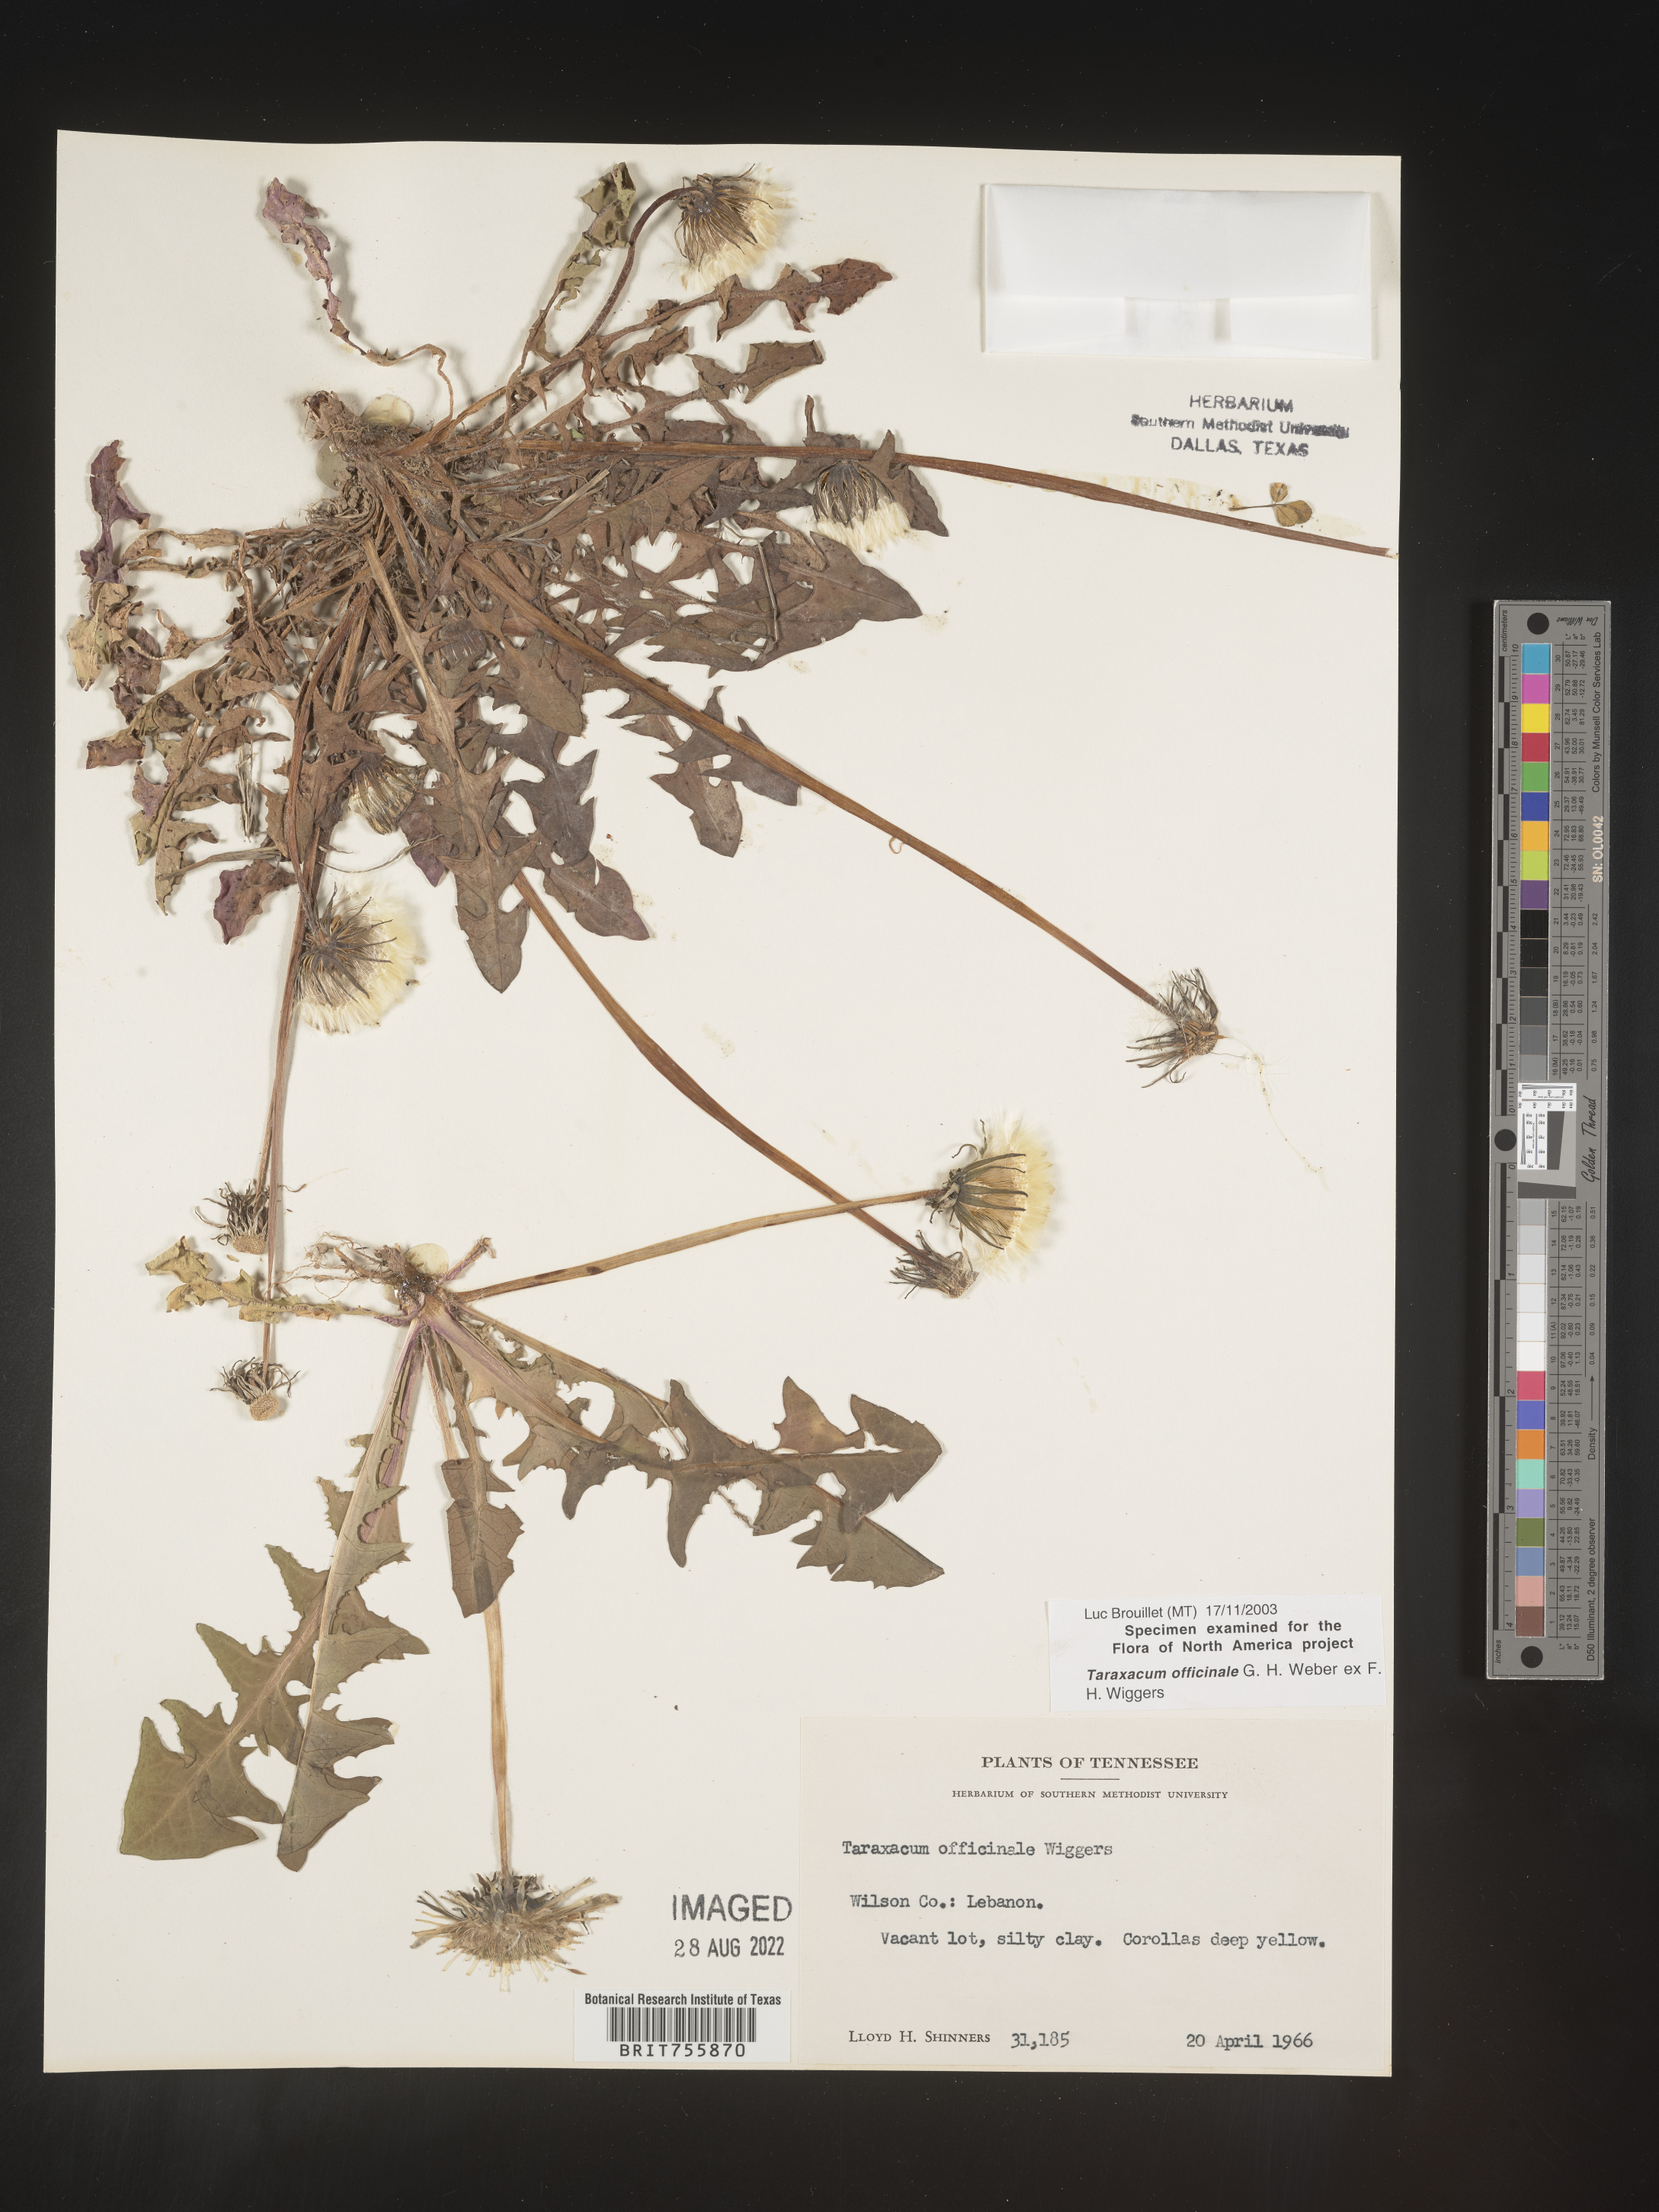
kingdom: Plantae
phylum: Tracheophyta
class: Magnoliopsida
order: Asterales
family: Asteraceae
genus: Taraxacum
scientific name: Taraxacum officinale
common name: Common dandelion
